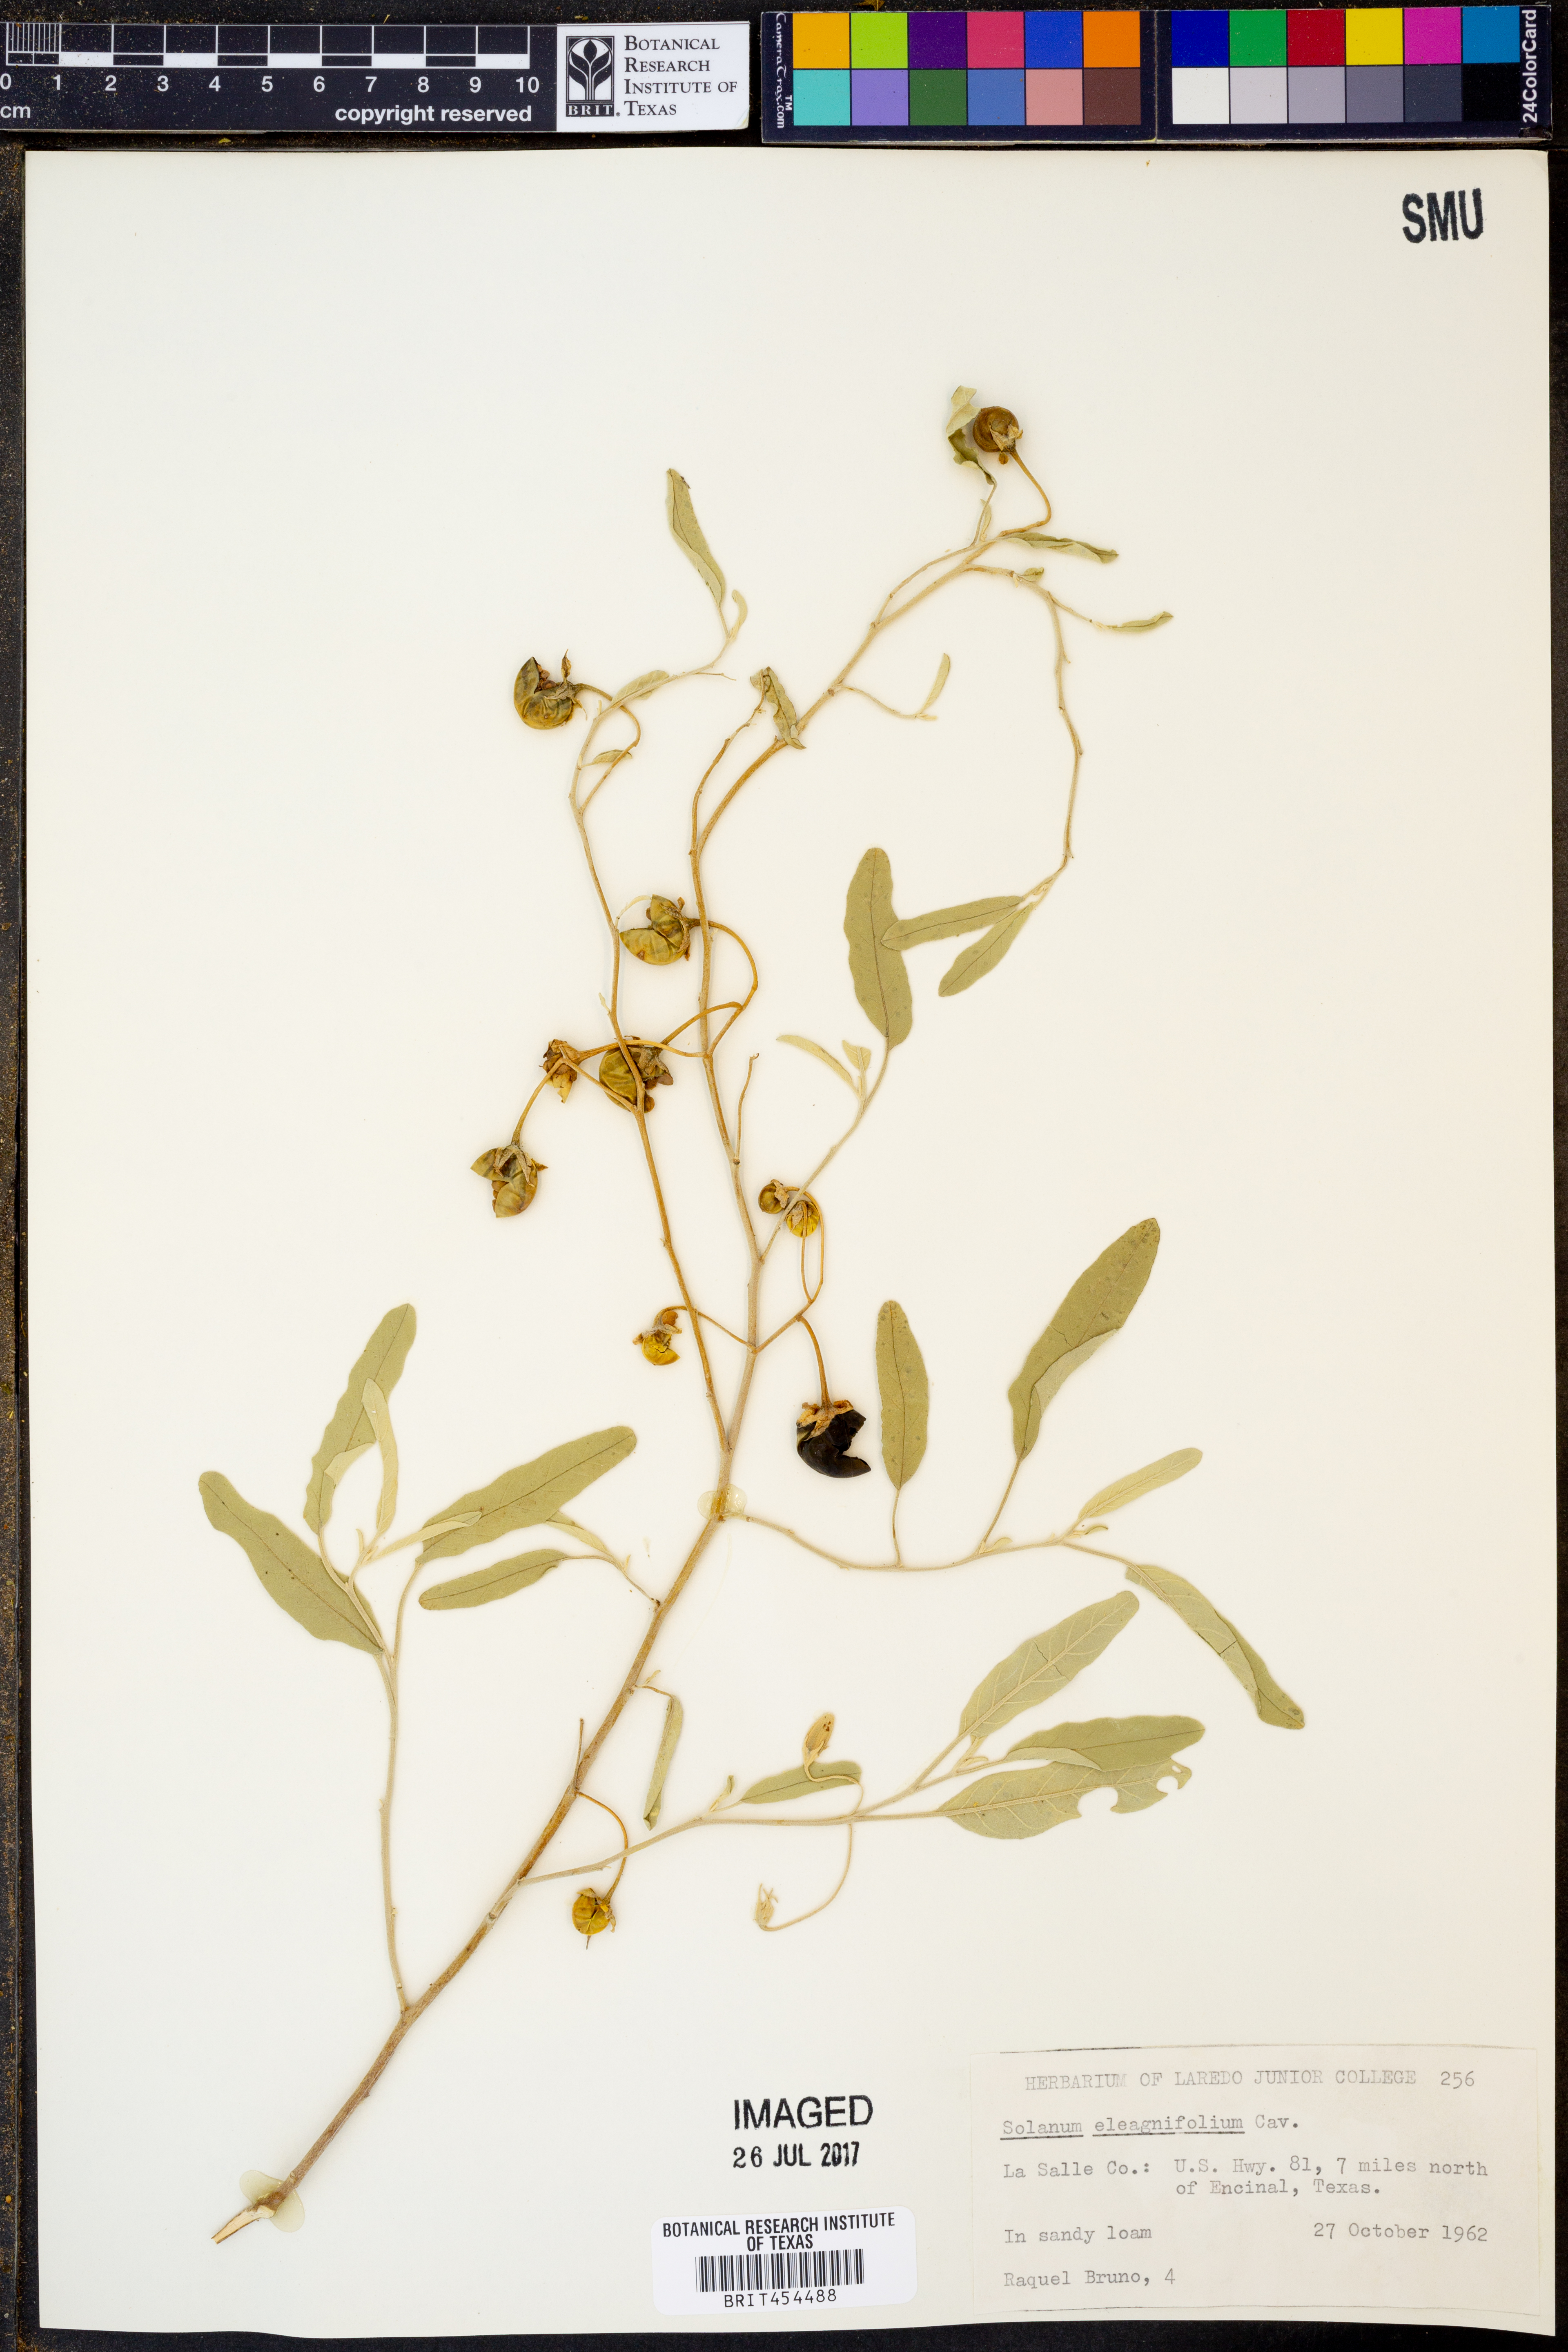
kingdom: Plantae
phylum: Tracheophyta
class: Magnoliopsida
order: Solanales
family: Solanaceae
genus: Solanum
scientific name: Solanum elaeagnifolium
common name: Silverleaf nightshade
